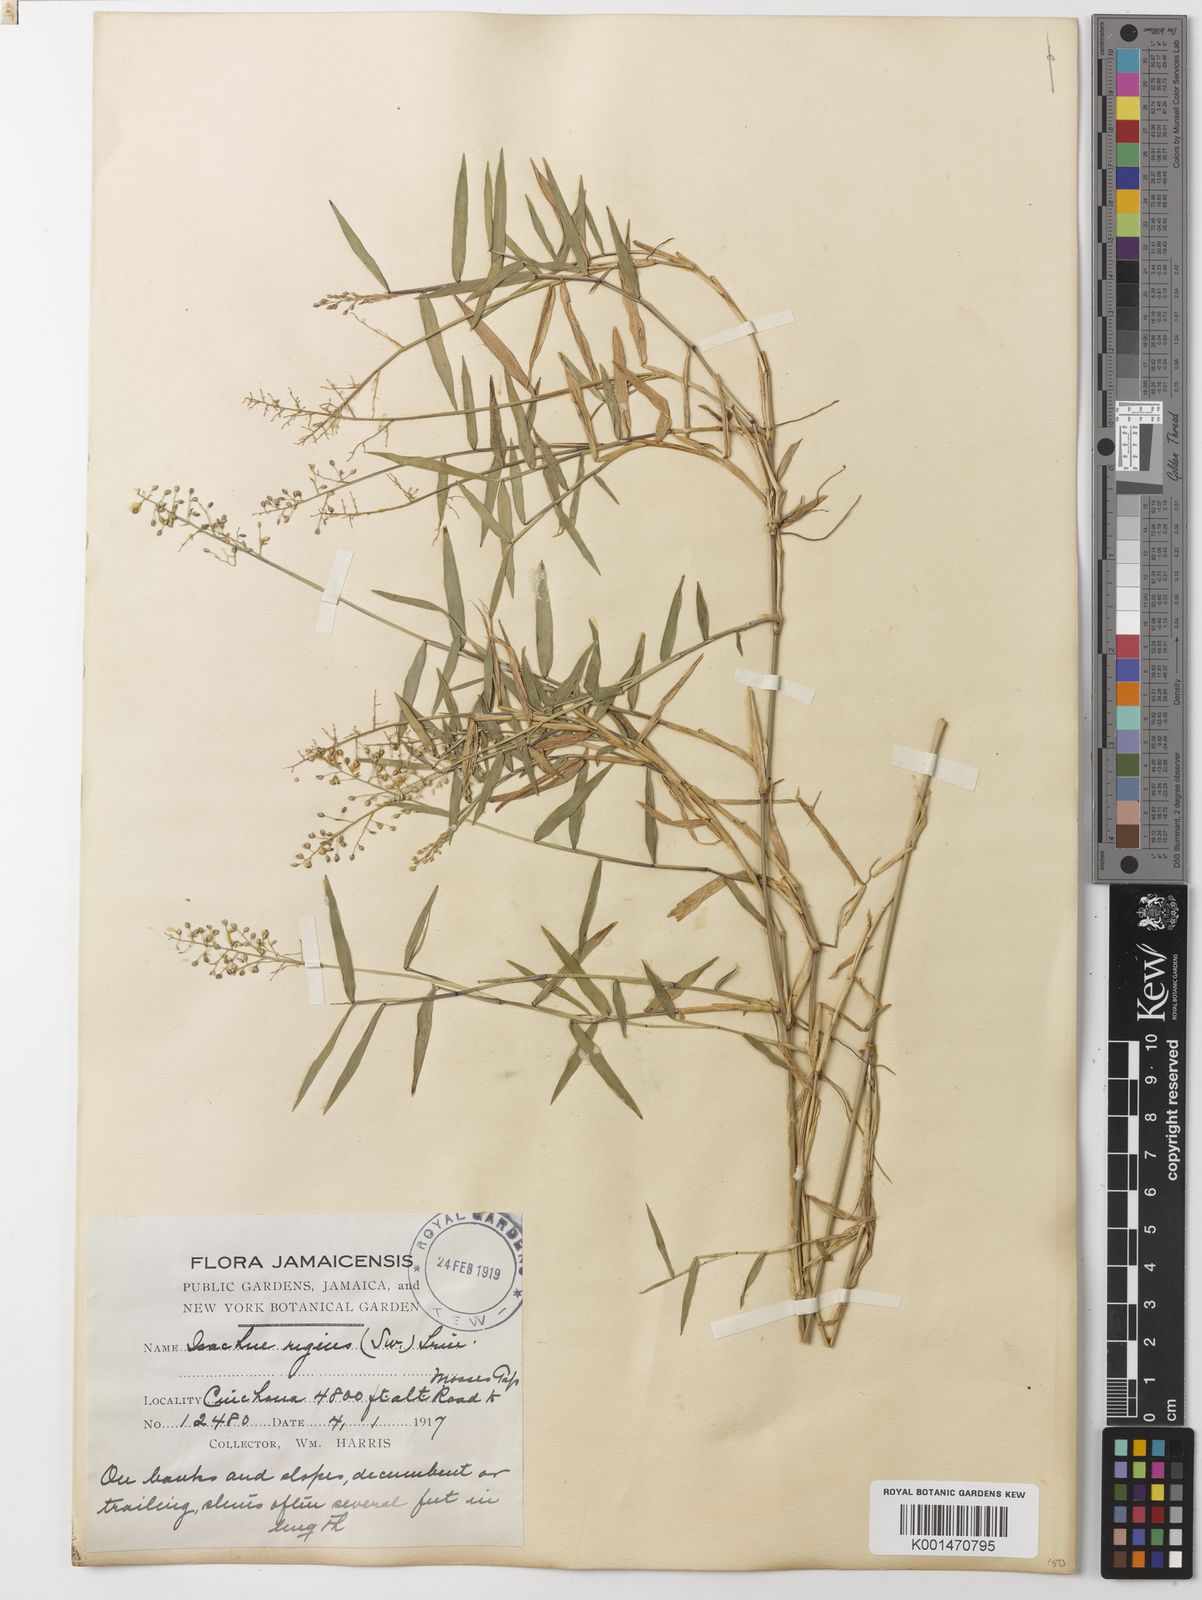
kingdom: Plantae
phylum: Tracheophyta
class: Liliopsida
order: Poales
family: Poaceae
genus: Isachne
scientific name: Isachne rigens
